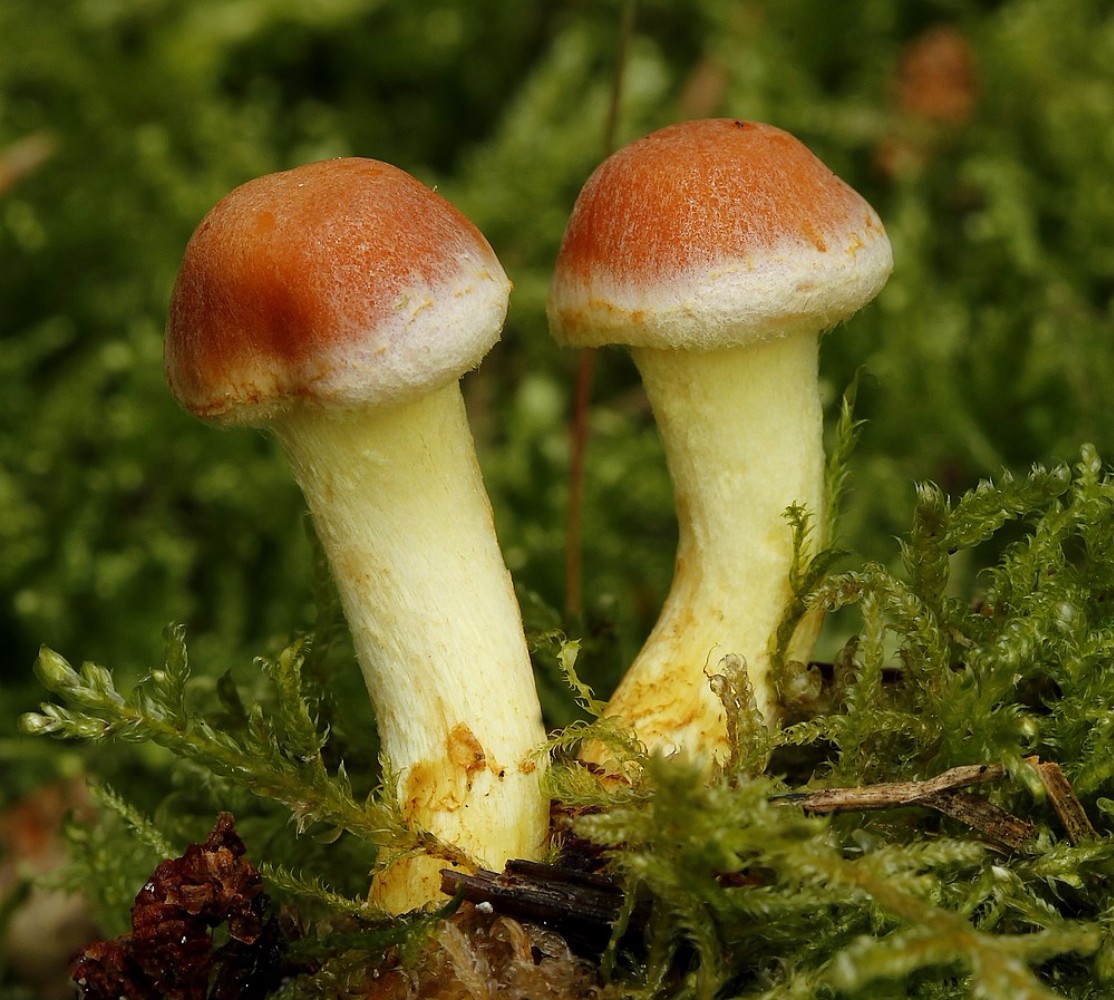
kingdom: Fungi
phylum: Basidiomycota
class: Agaricomycetes
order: Agaricales
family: Strophariaceae
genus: Hypholoma
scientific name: Hypholoma
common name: svovlhat
